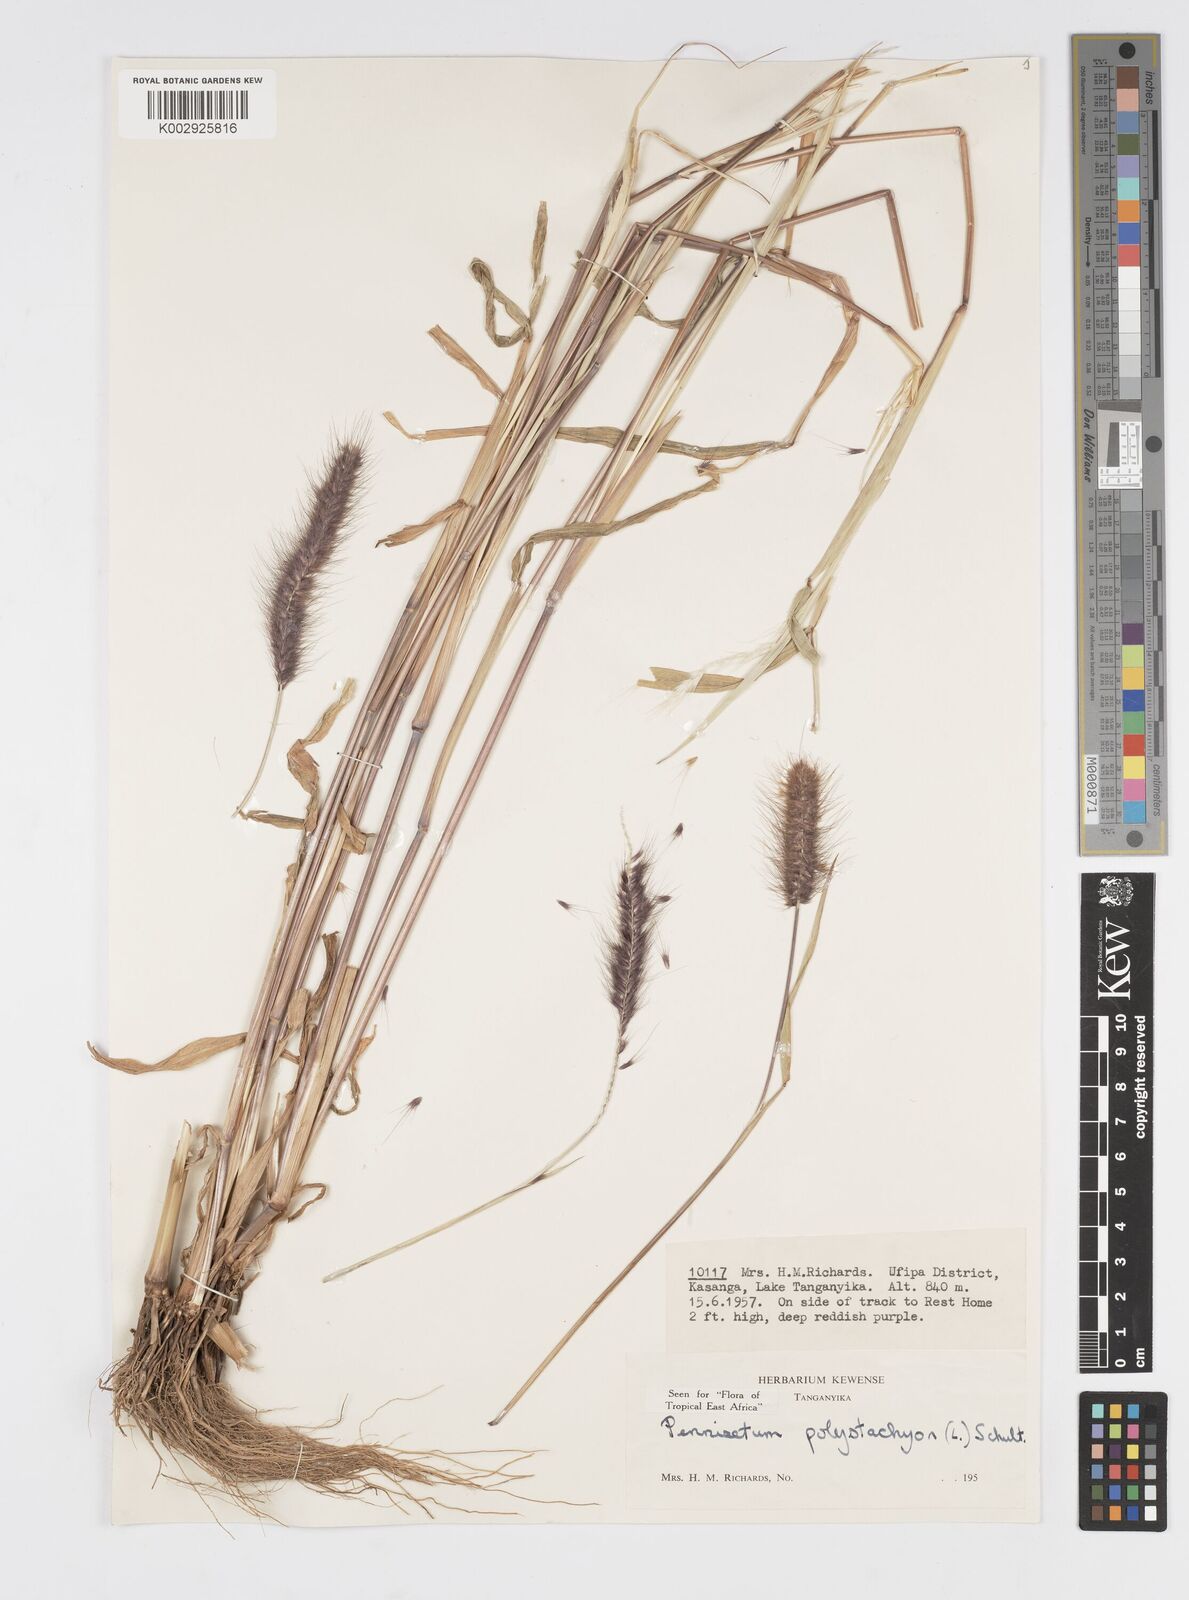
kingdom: Plantae
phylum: Tracheophyta
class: Liliopsida
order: Poales
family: Poaceae
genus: Setaria
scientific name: Setaria parviflora
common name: Knotroot bristle-grass
